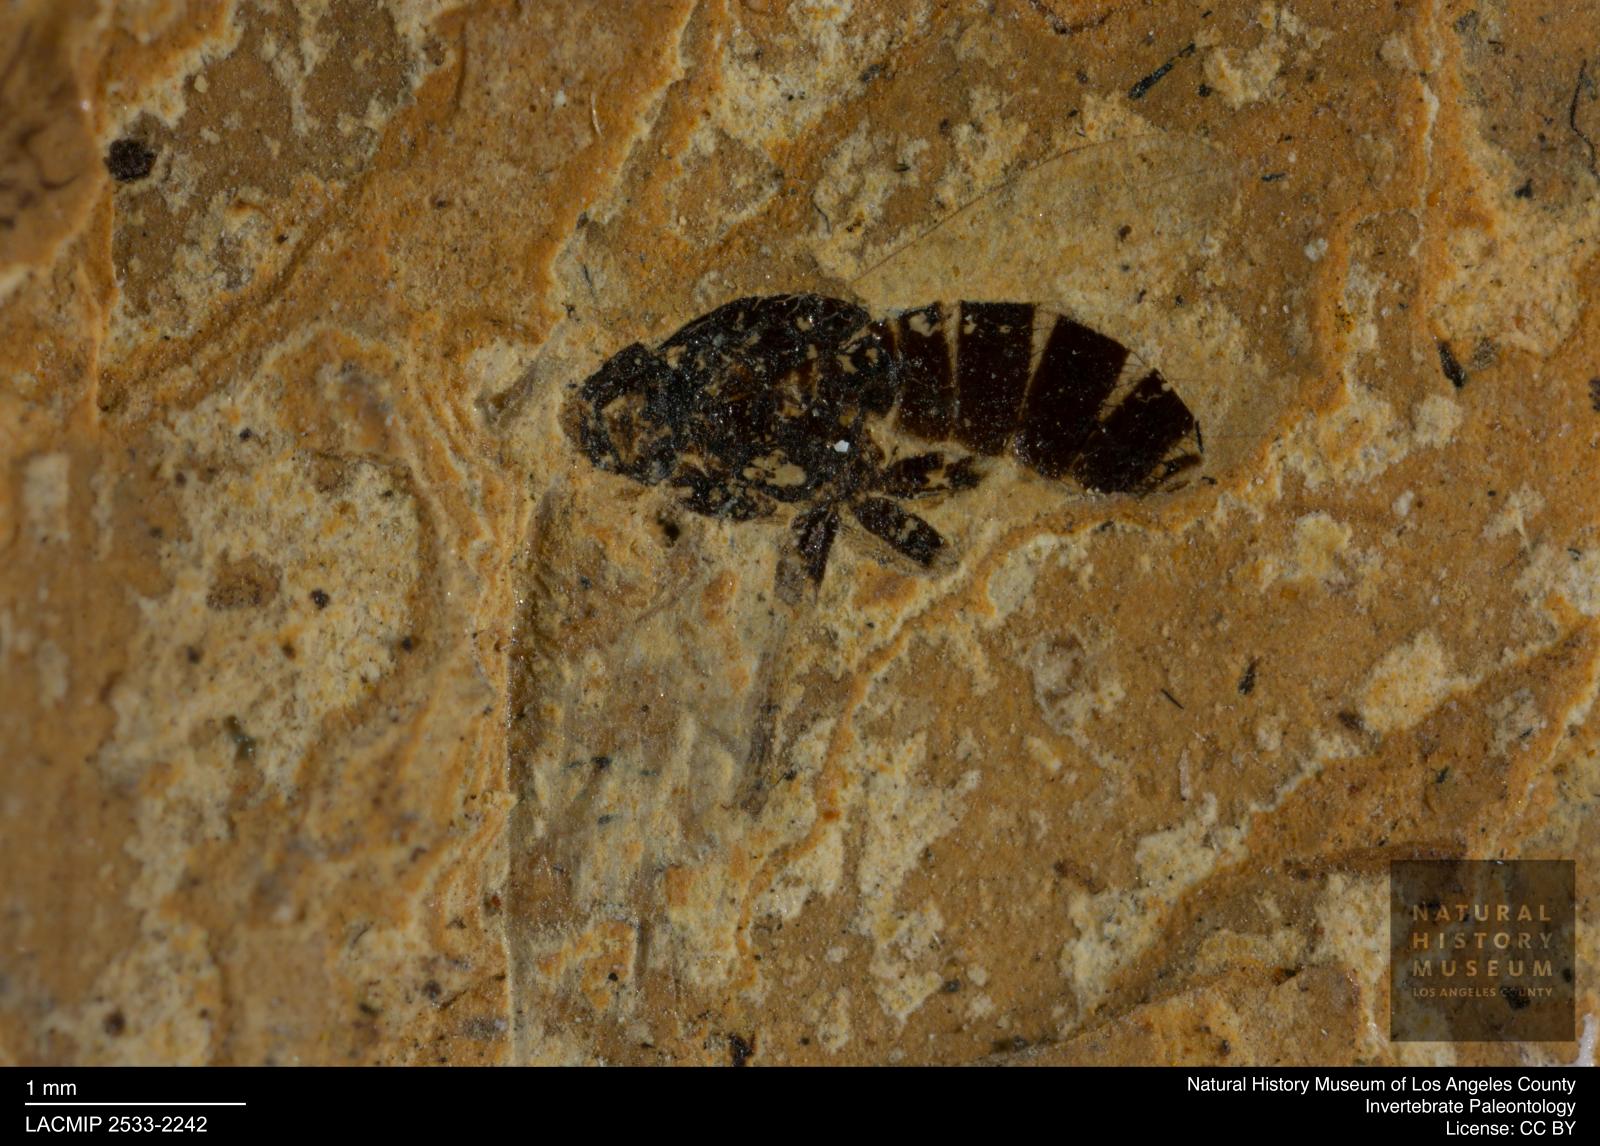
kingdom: Animalia
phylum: Arthropoda
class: Insecta
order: Diptera
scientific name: Diptera
